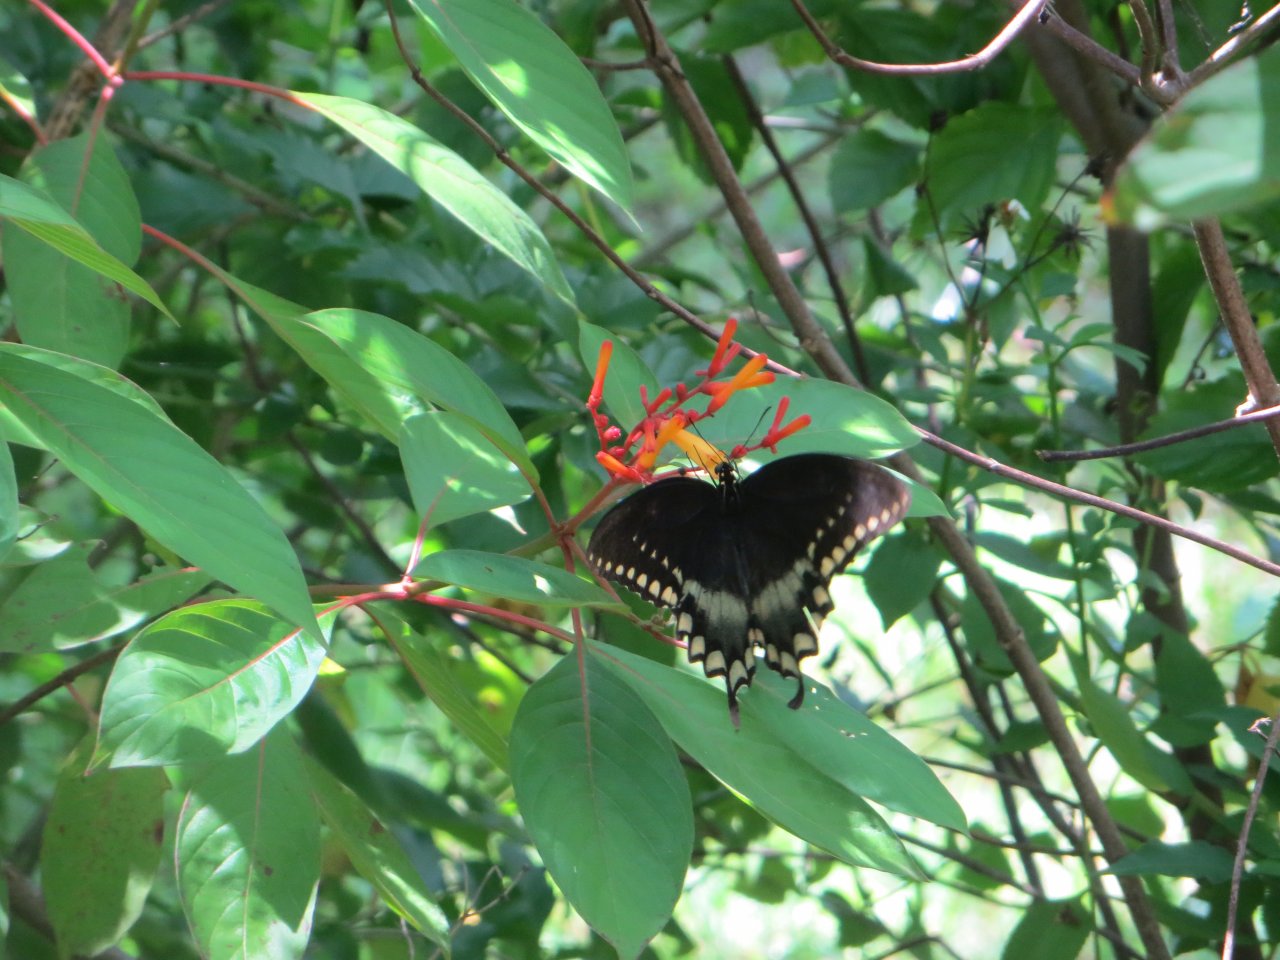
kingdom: Animalia
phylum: Arthropoda
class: Insecta
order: Lepidoptera
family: Papilionidae
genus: Pterourus
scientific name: Pterourus troilus
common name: Spicebush Swallowtail
